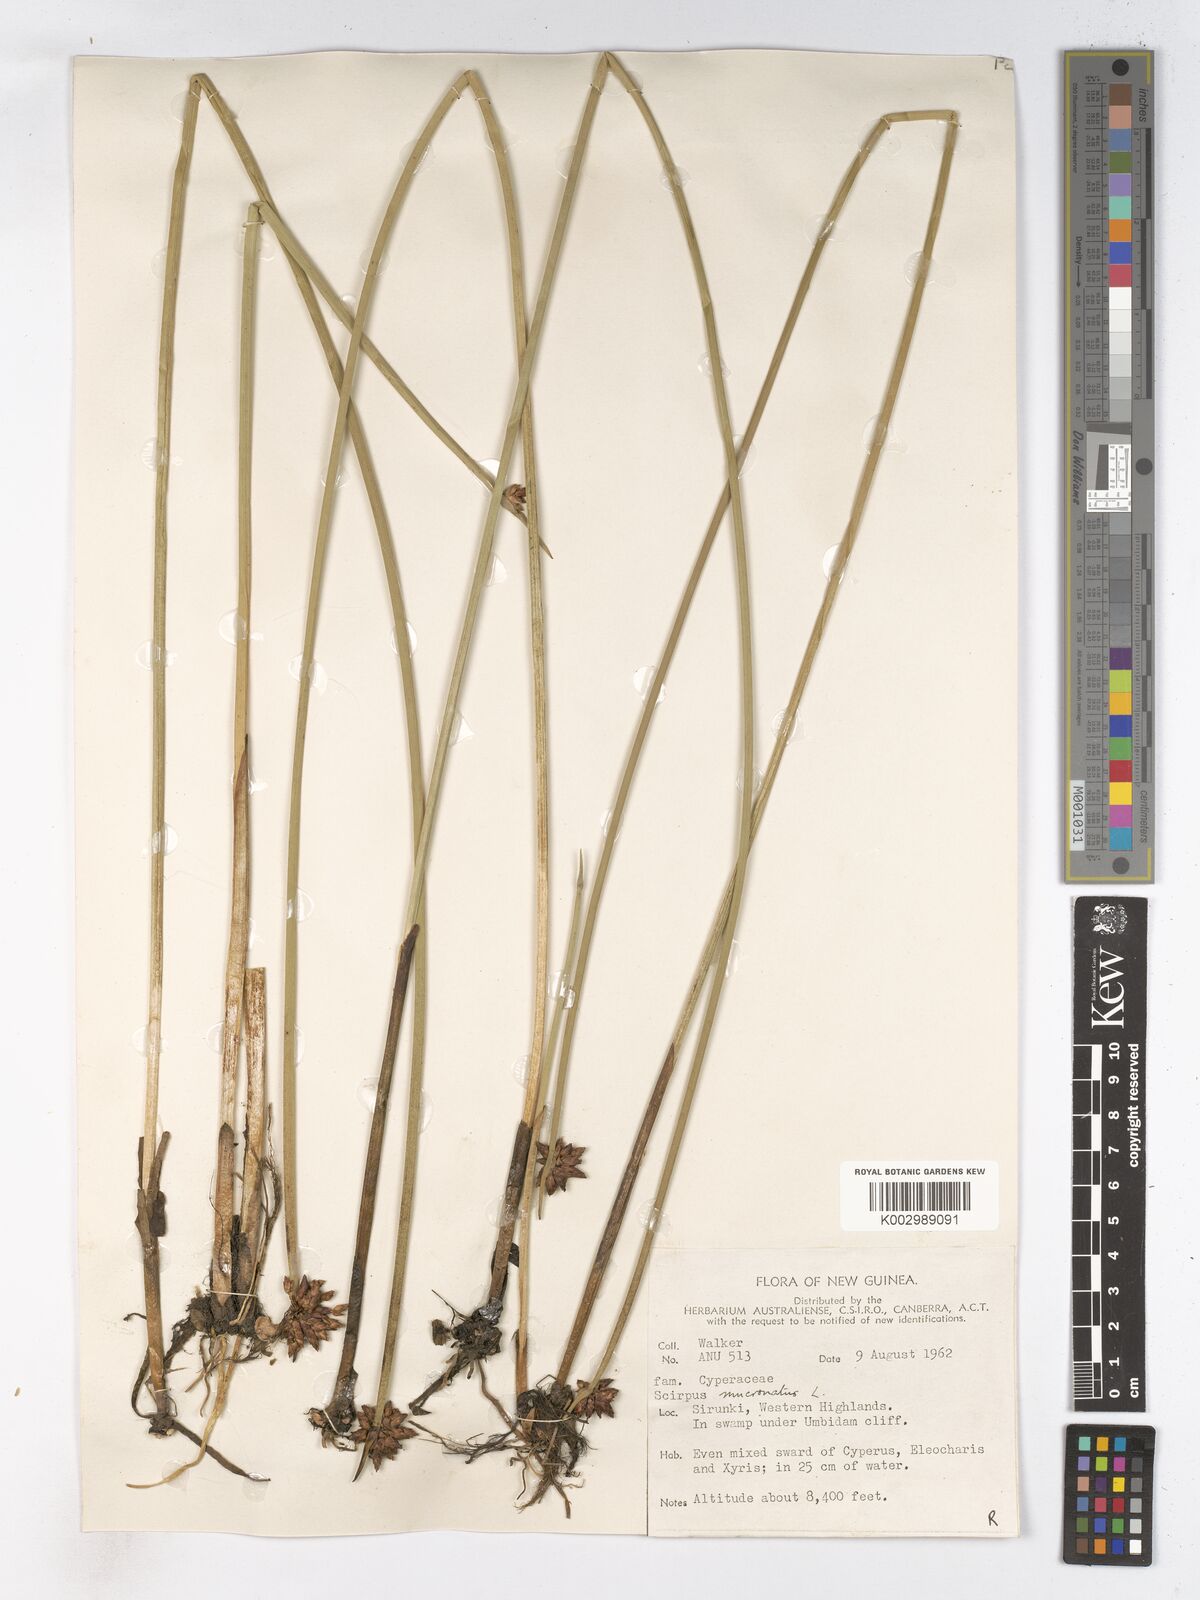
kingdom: Plantae
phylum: Tracheophyta
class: Liliopsida
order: Poales
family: Cyperaceae
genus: Schoenoplectiella
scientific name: Schoenoplectiella mucronata
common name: Bog bulrush
